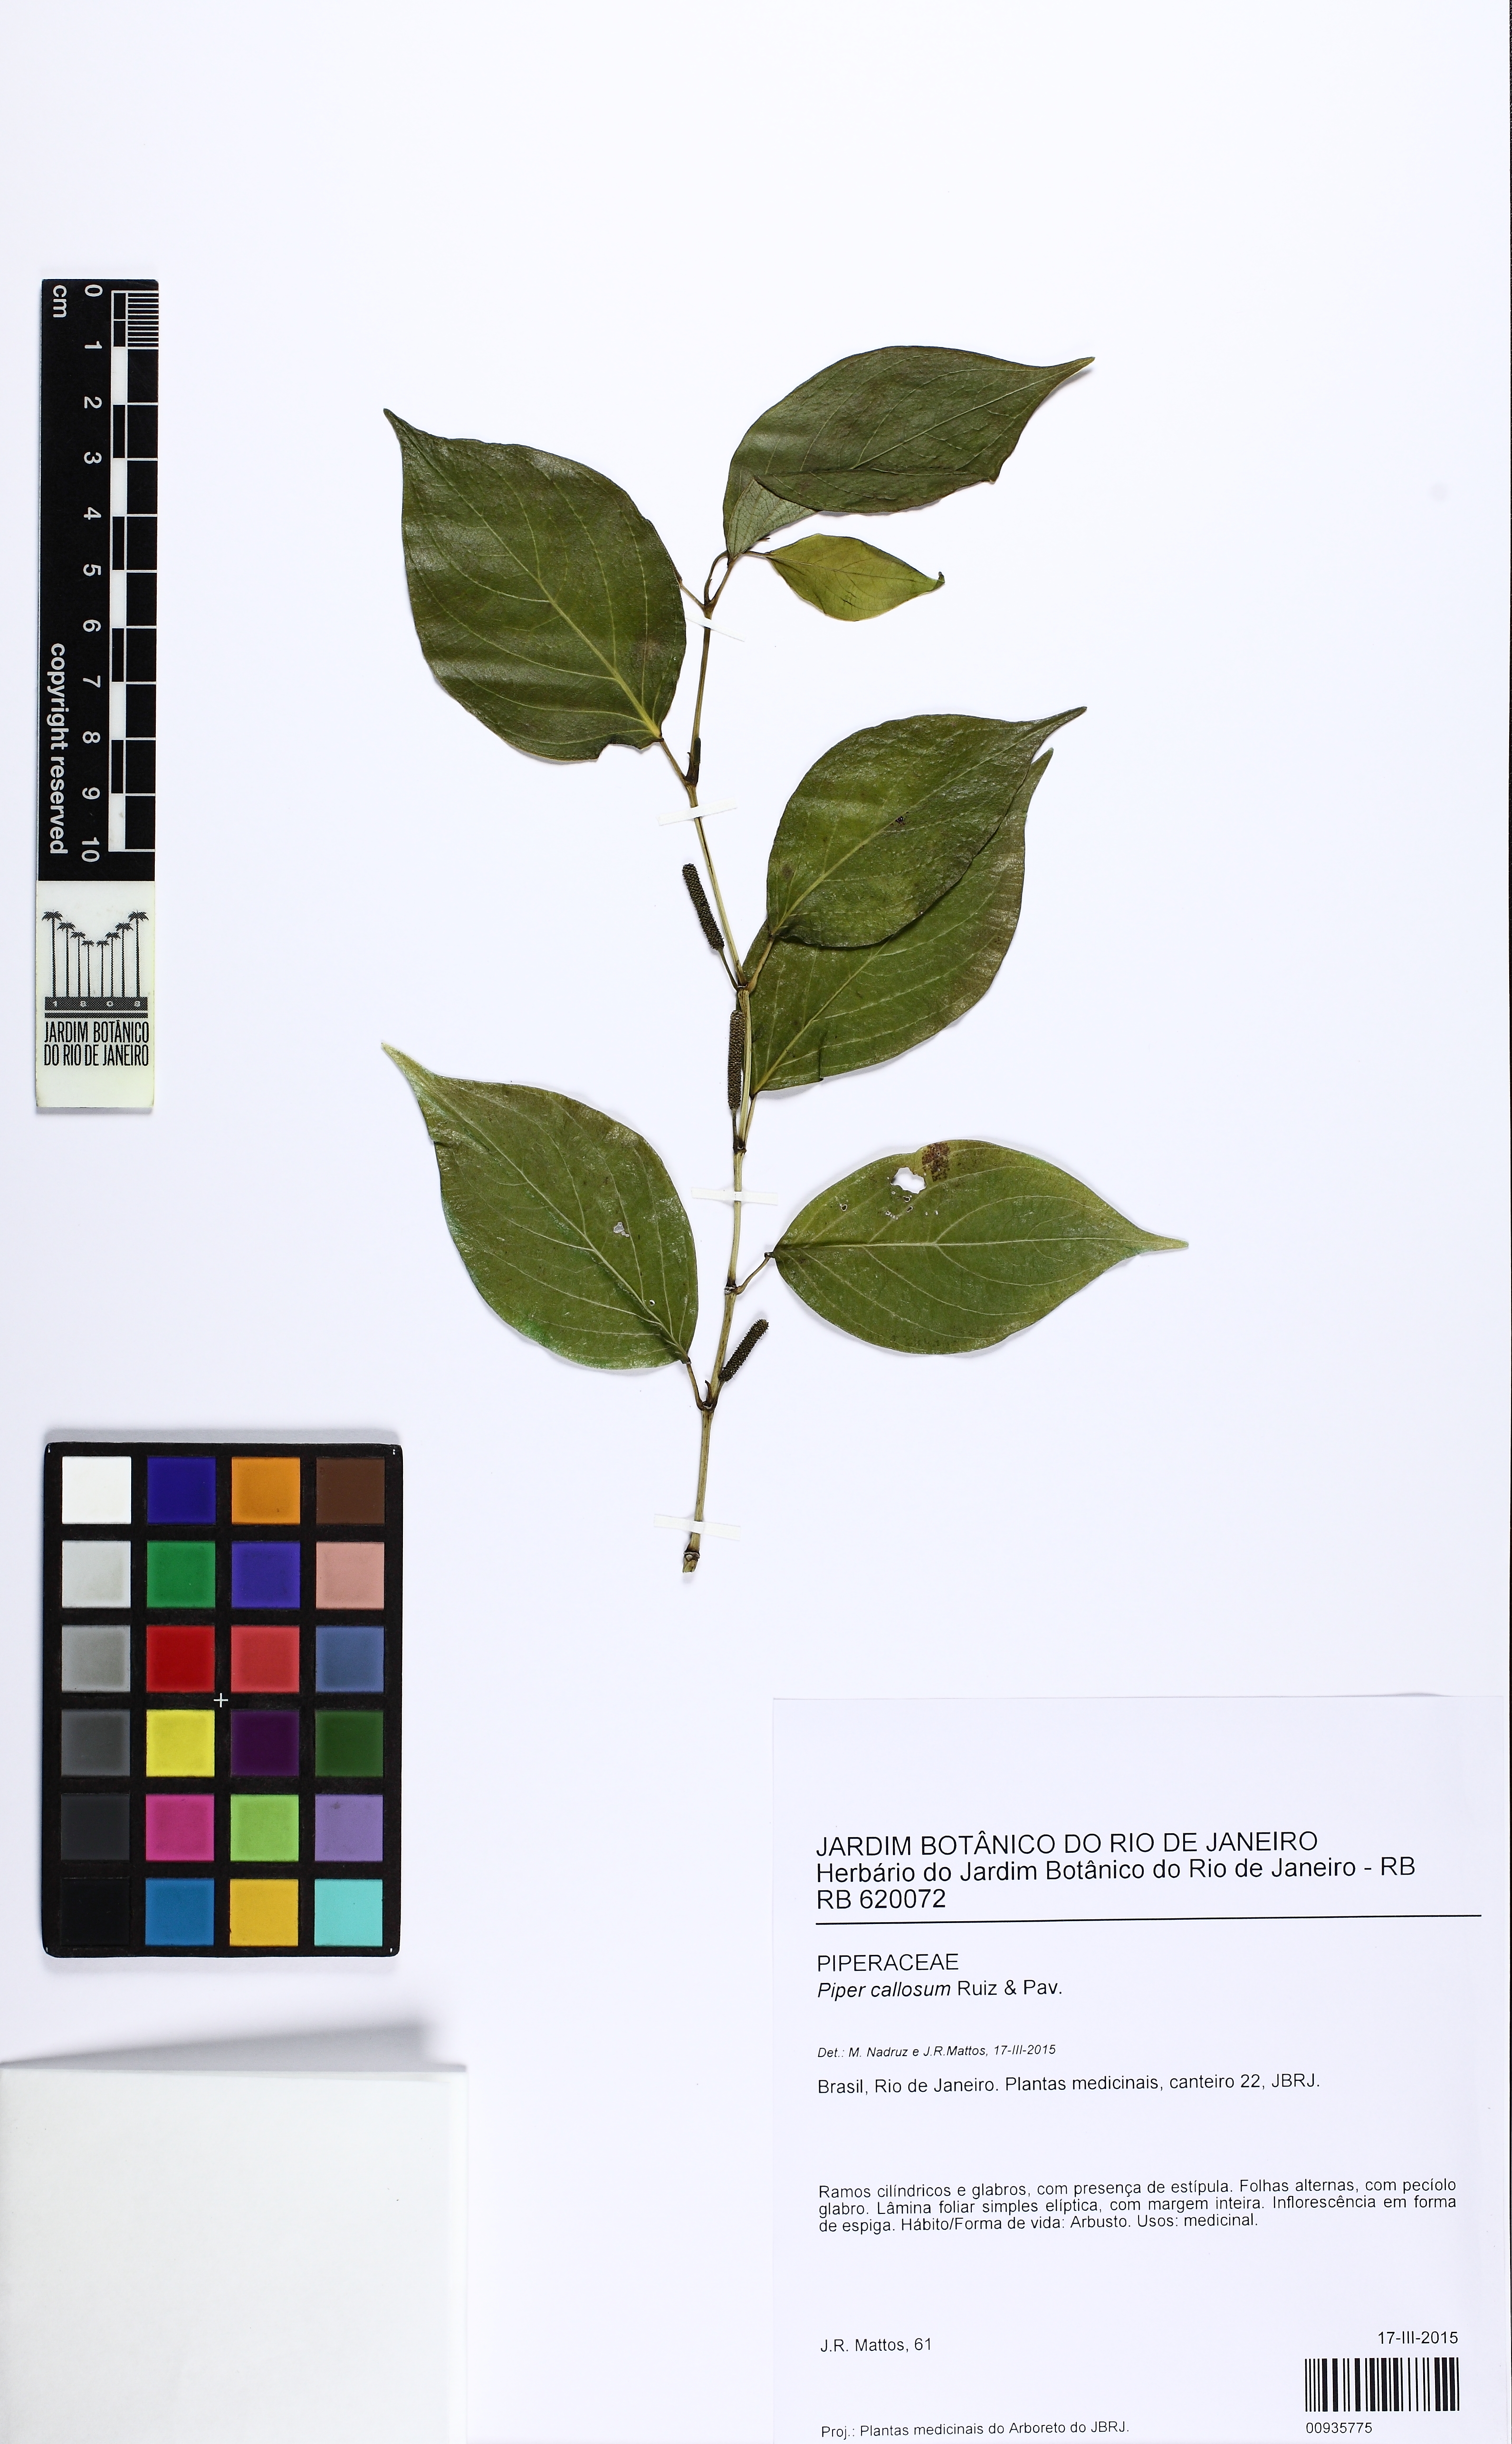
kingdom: Plantae
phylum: Tracheophyta
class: Magnoliopsida
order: Piperales
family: Piperaceae
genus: Piper
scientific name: Piper callosum
